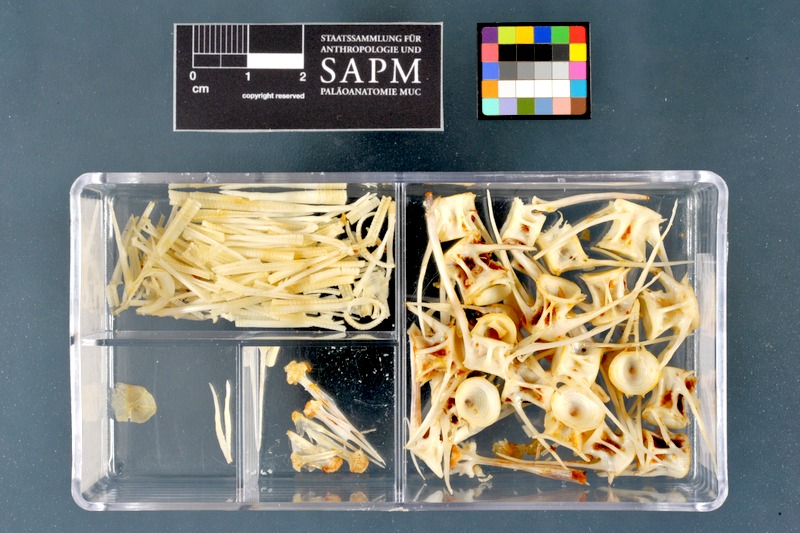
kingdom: Animalia
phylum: Chordata
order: Cypriniformes
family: Cyprinidae
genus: Rutilus
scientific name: Rutilus meidingeri
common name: Perlfisch
